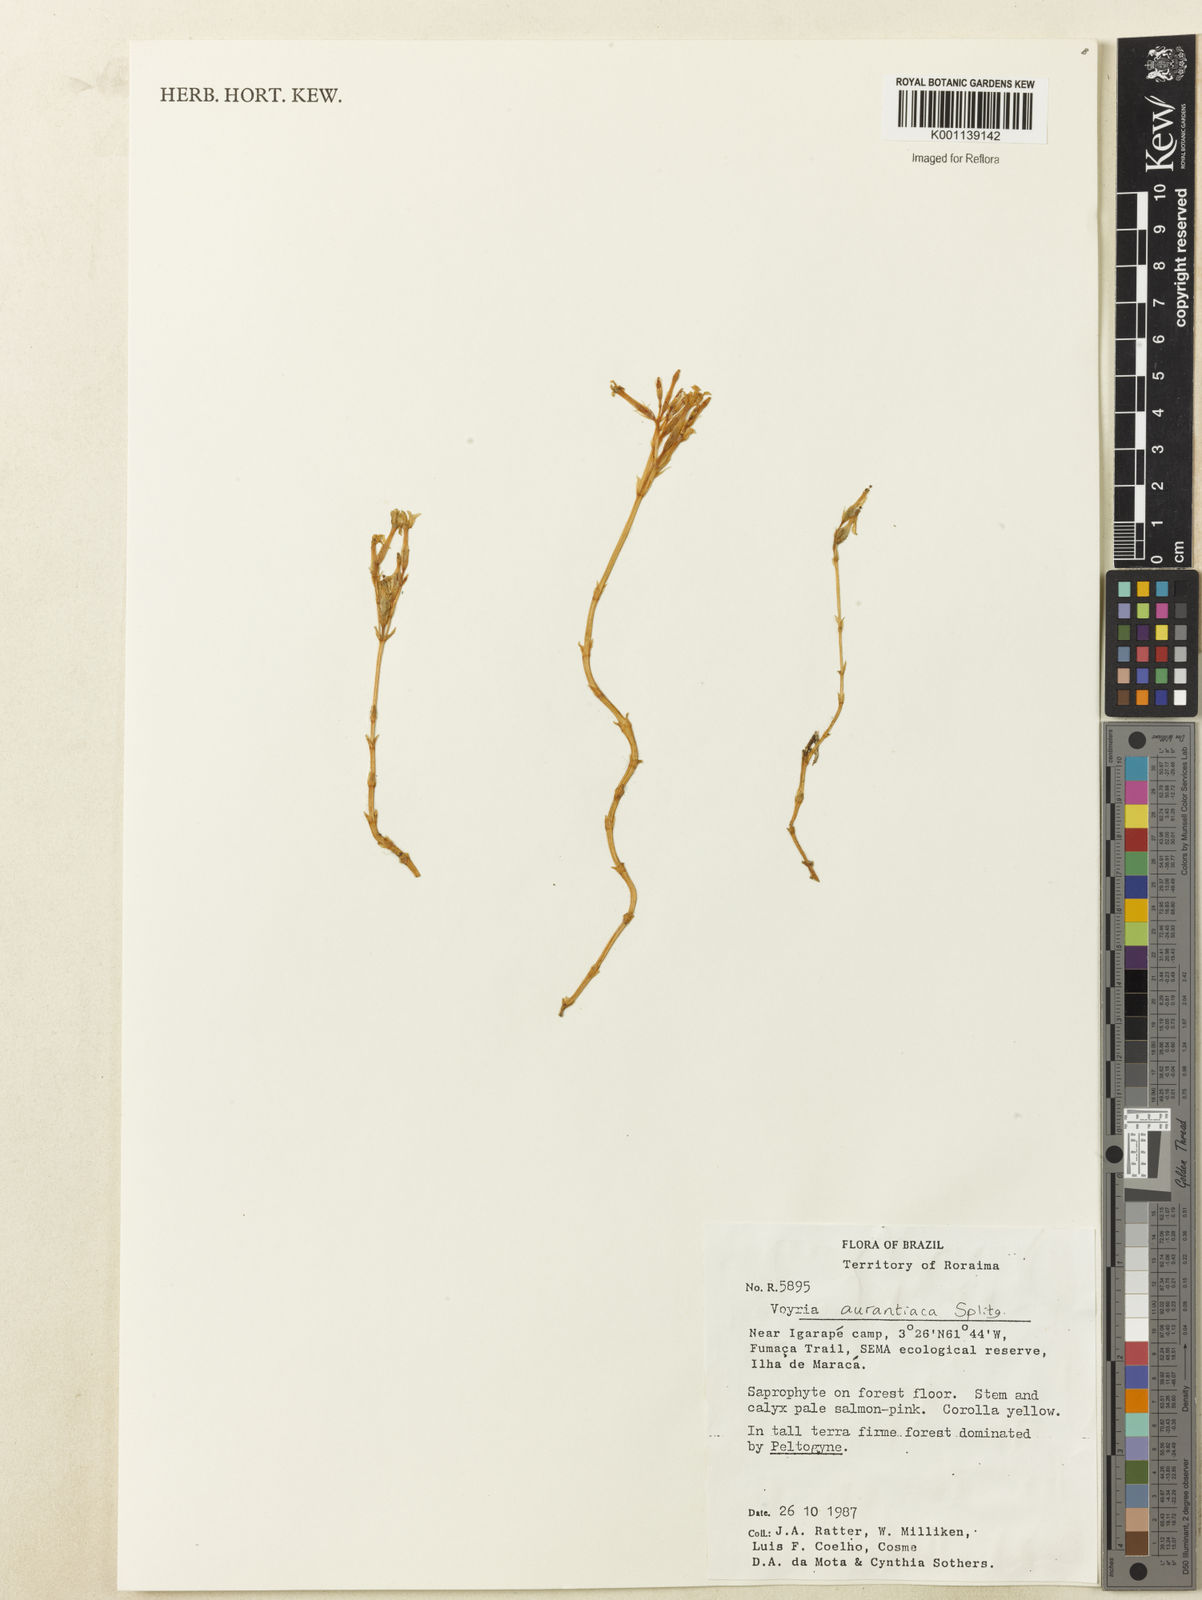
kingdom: Plantae
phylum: Tracheophyta
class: Magnoliopsida
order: Gentianales
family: Gentianaceae
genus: Voyria
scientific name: Voyria aurantiaca
